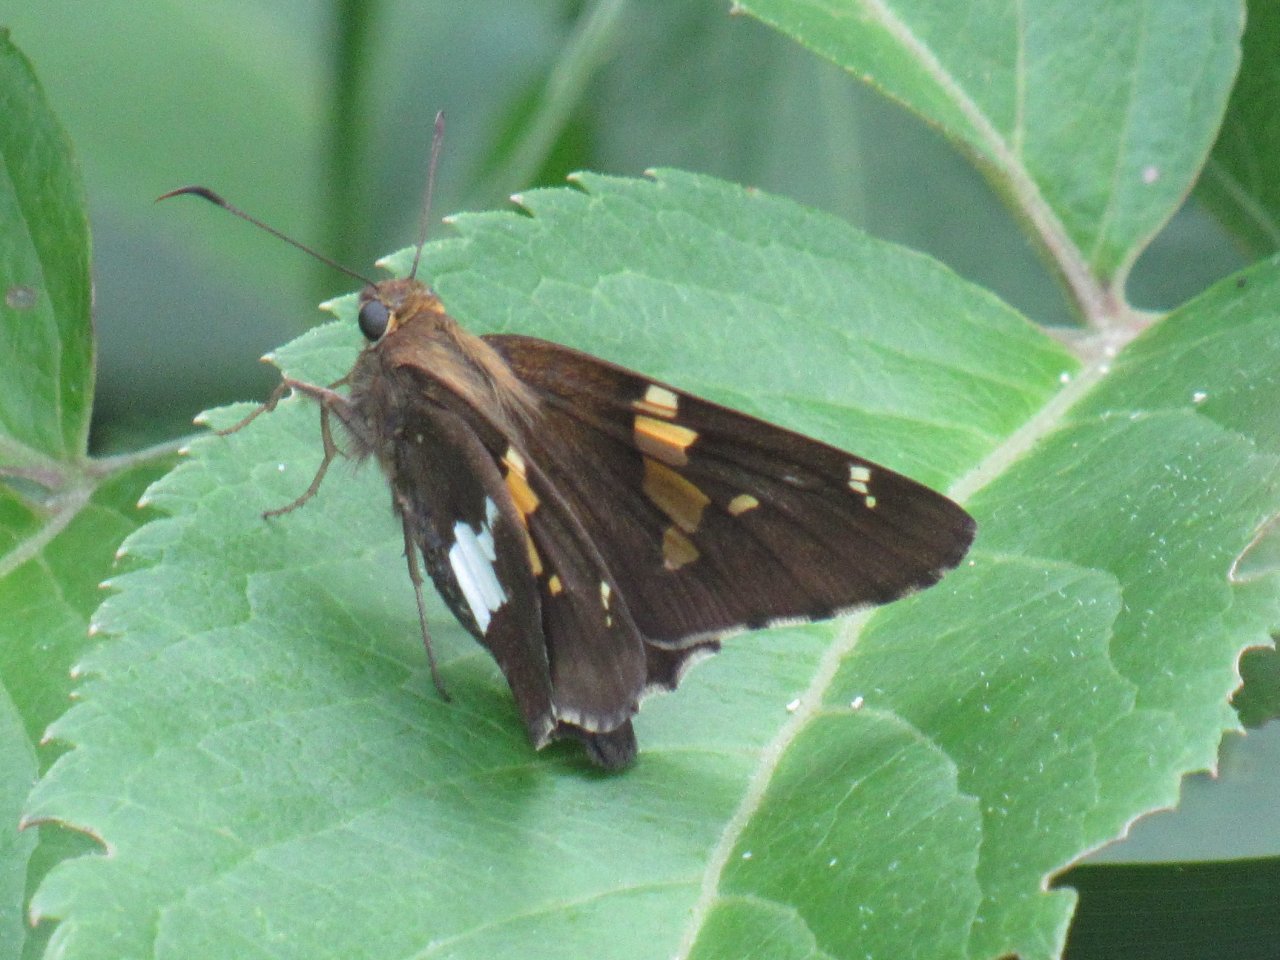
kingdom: Animalia
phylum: Arthropoda
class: Insecta
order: Lepidoptera
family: Hesperiidae
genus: Epargyreus
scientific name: Epargyreus clarus
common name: Silver-spotted Skipper
